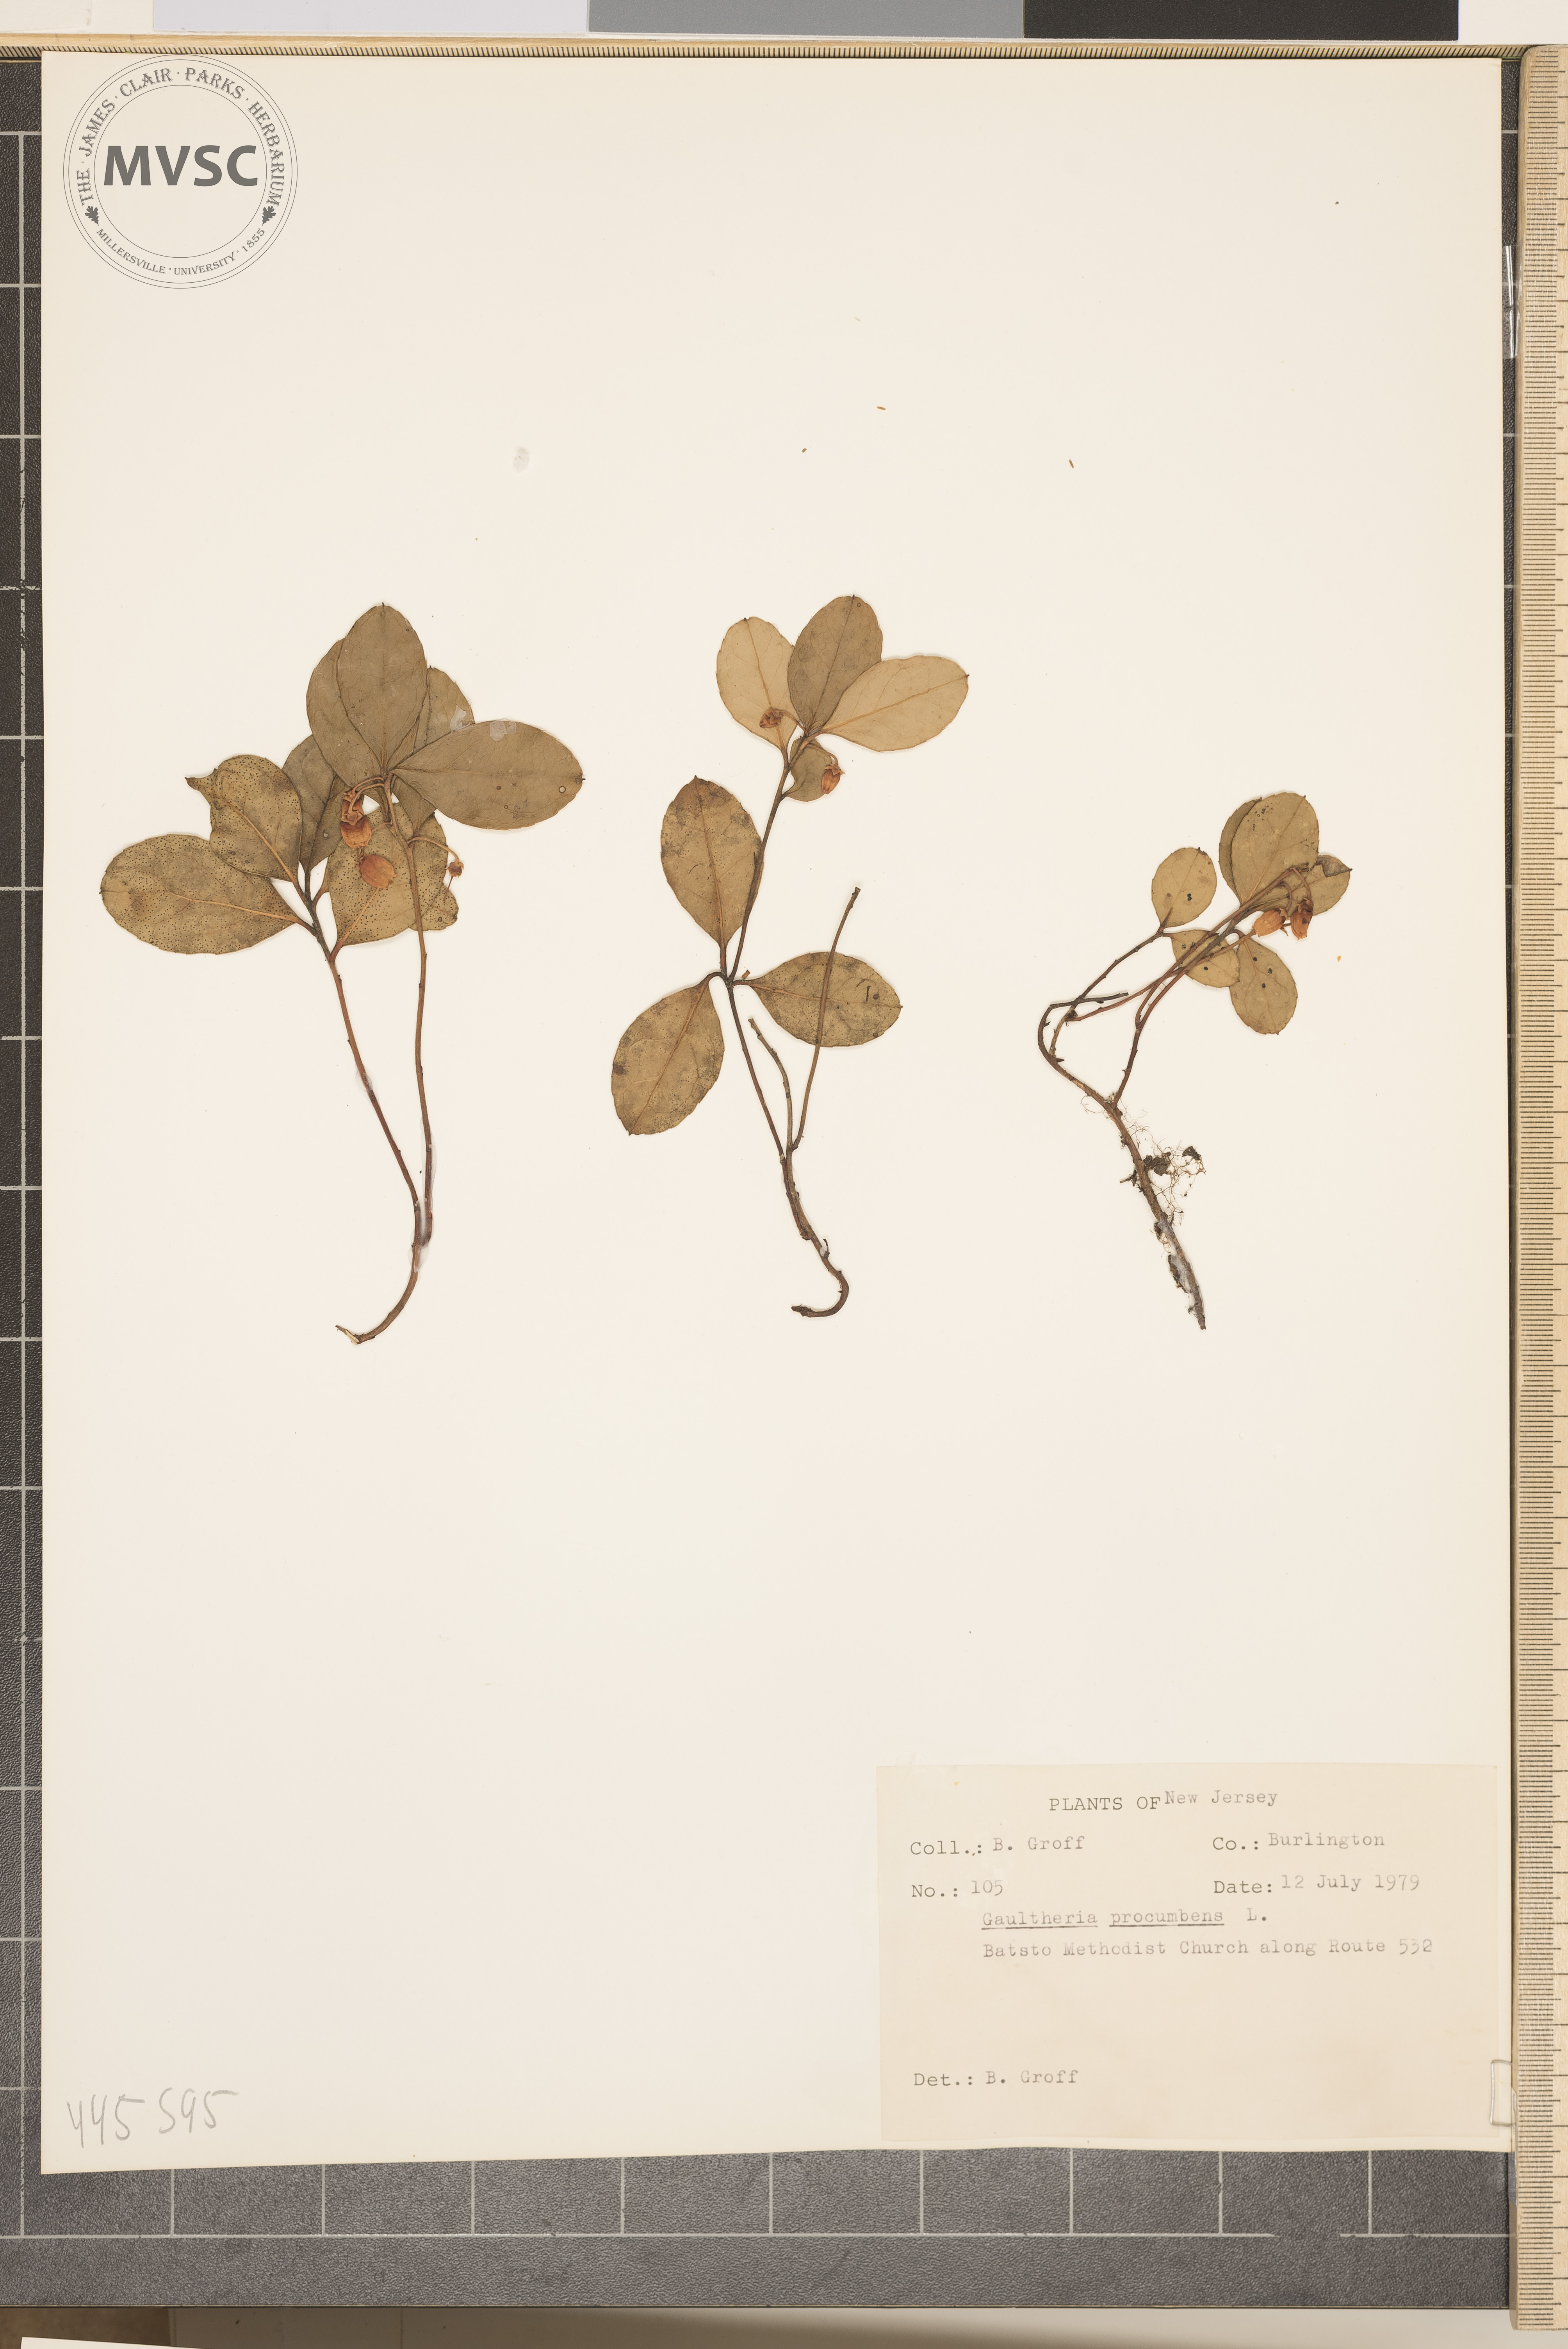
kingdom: Plantae
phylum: Tracheophyta
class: Magnoliopsida
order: Ericales
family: Ericaceae
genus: Gaultheria
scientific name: Gaultheria procumbens
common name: Checkerberry
